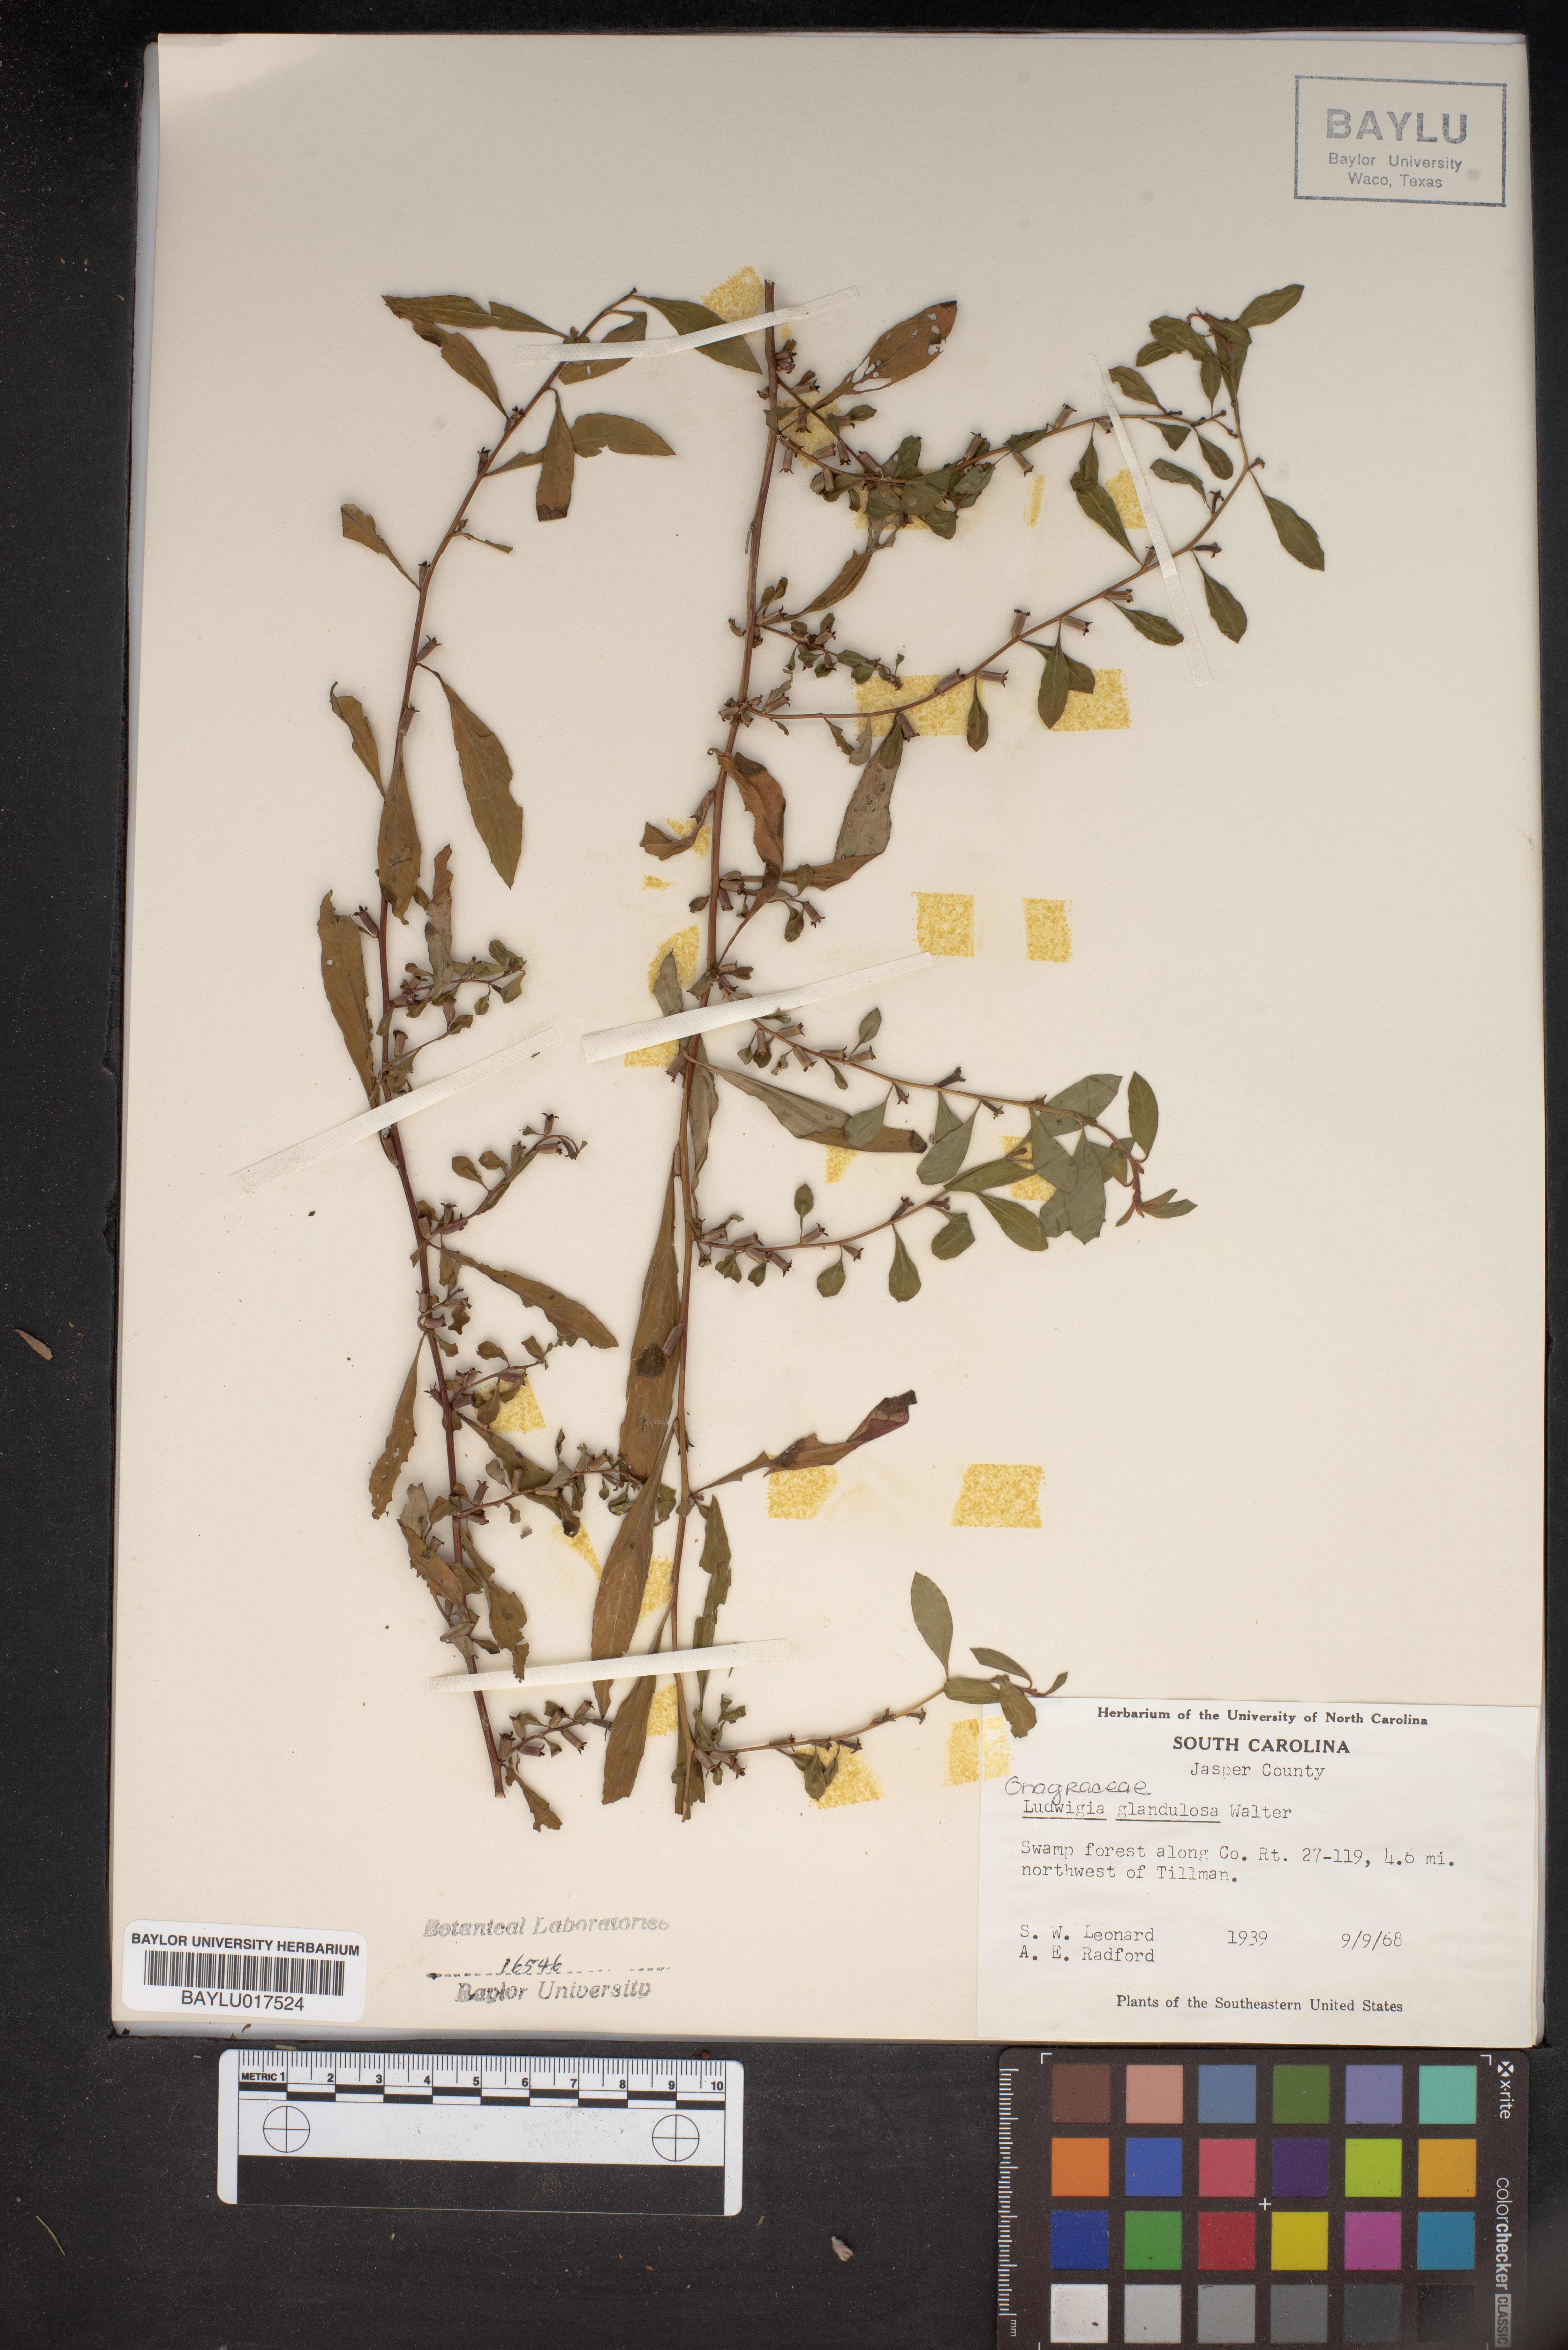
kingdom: Plantae
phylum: Tracheophyta
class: Magnoliopsida
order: Myrtales
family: Onagraceae
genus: Ludwigia
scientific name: Ludwigia glandulosa
